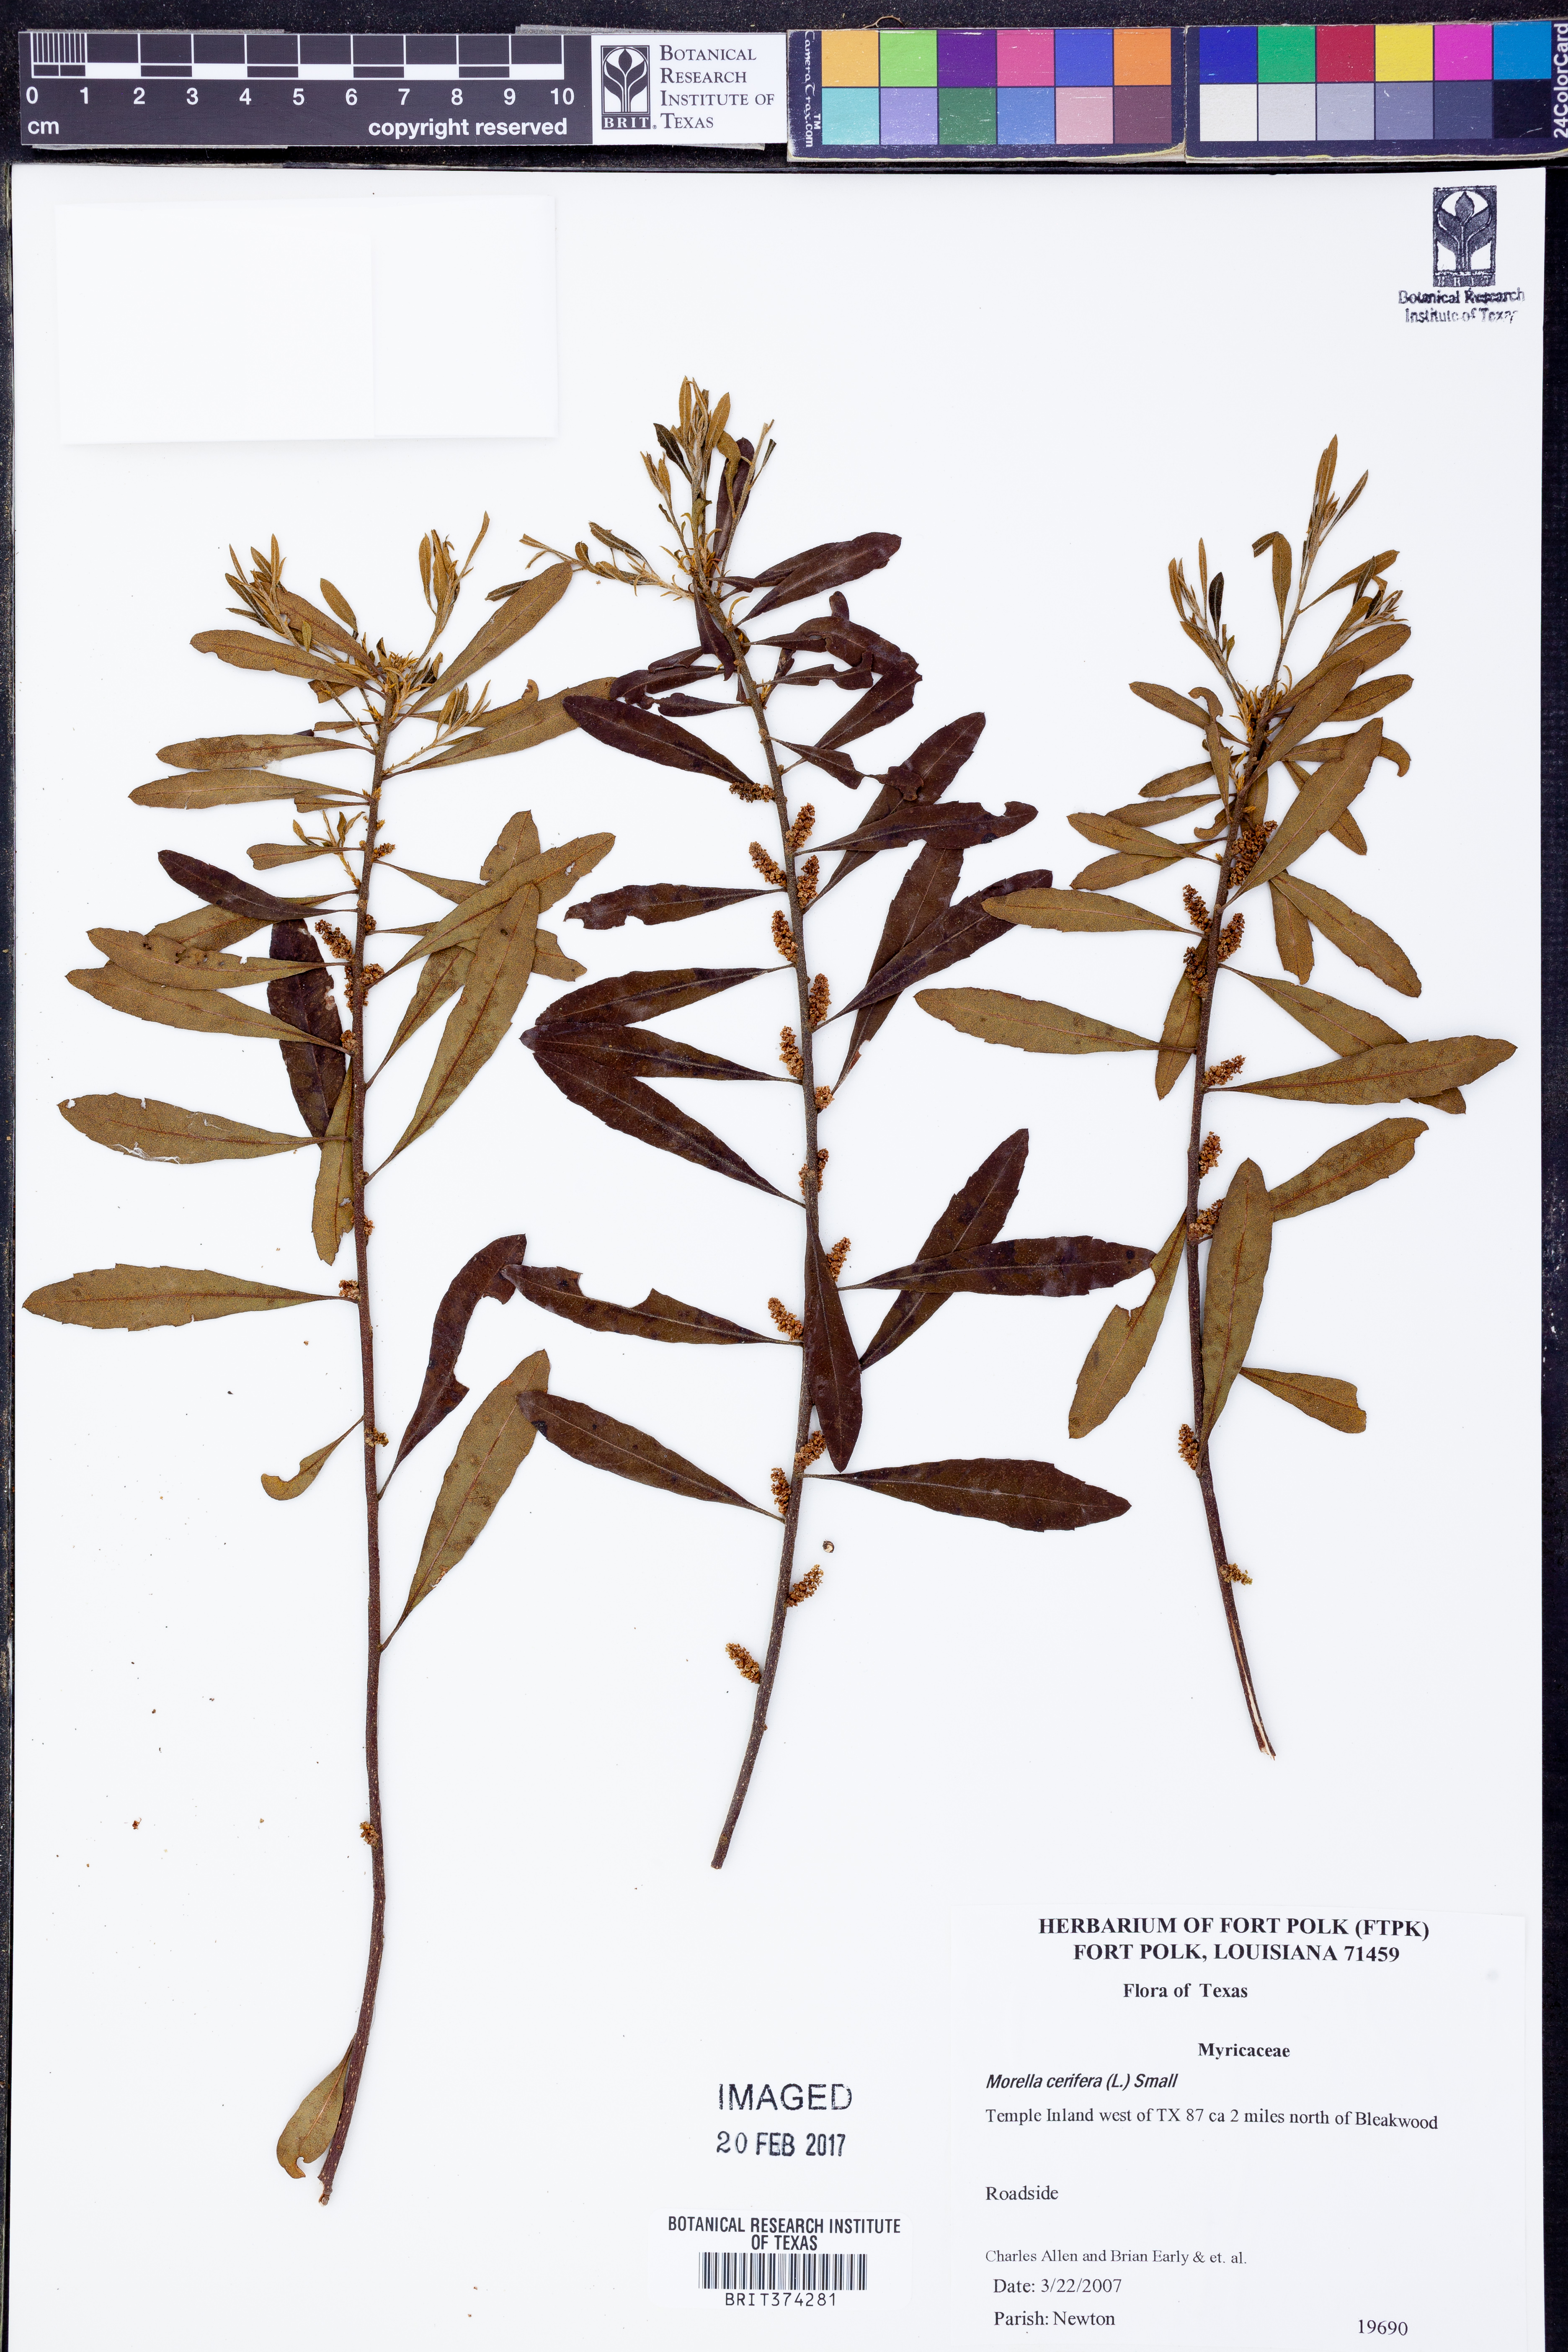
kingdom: Plantae
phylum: Tracheophyta
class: Magnoliopsida
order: Fagales
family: Myricaceae
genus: Morella
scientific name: Morella cerifera
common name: Wax myrtle
